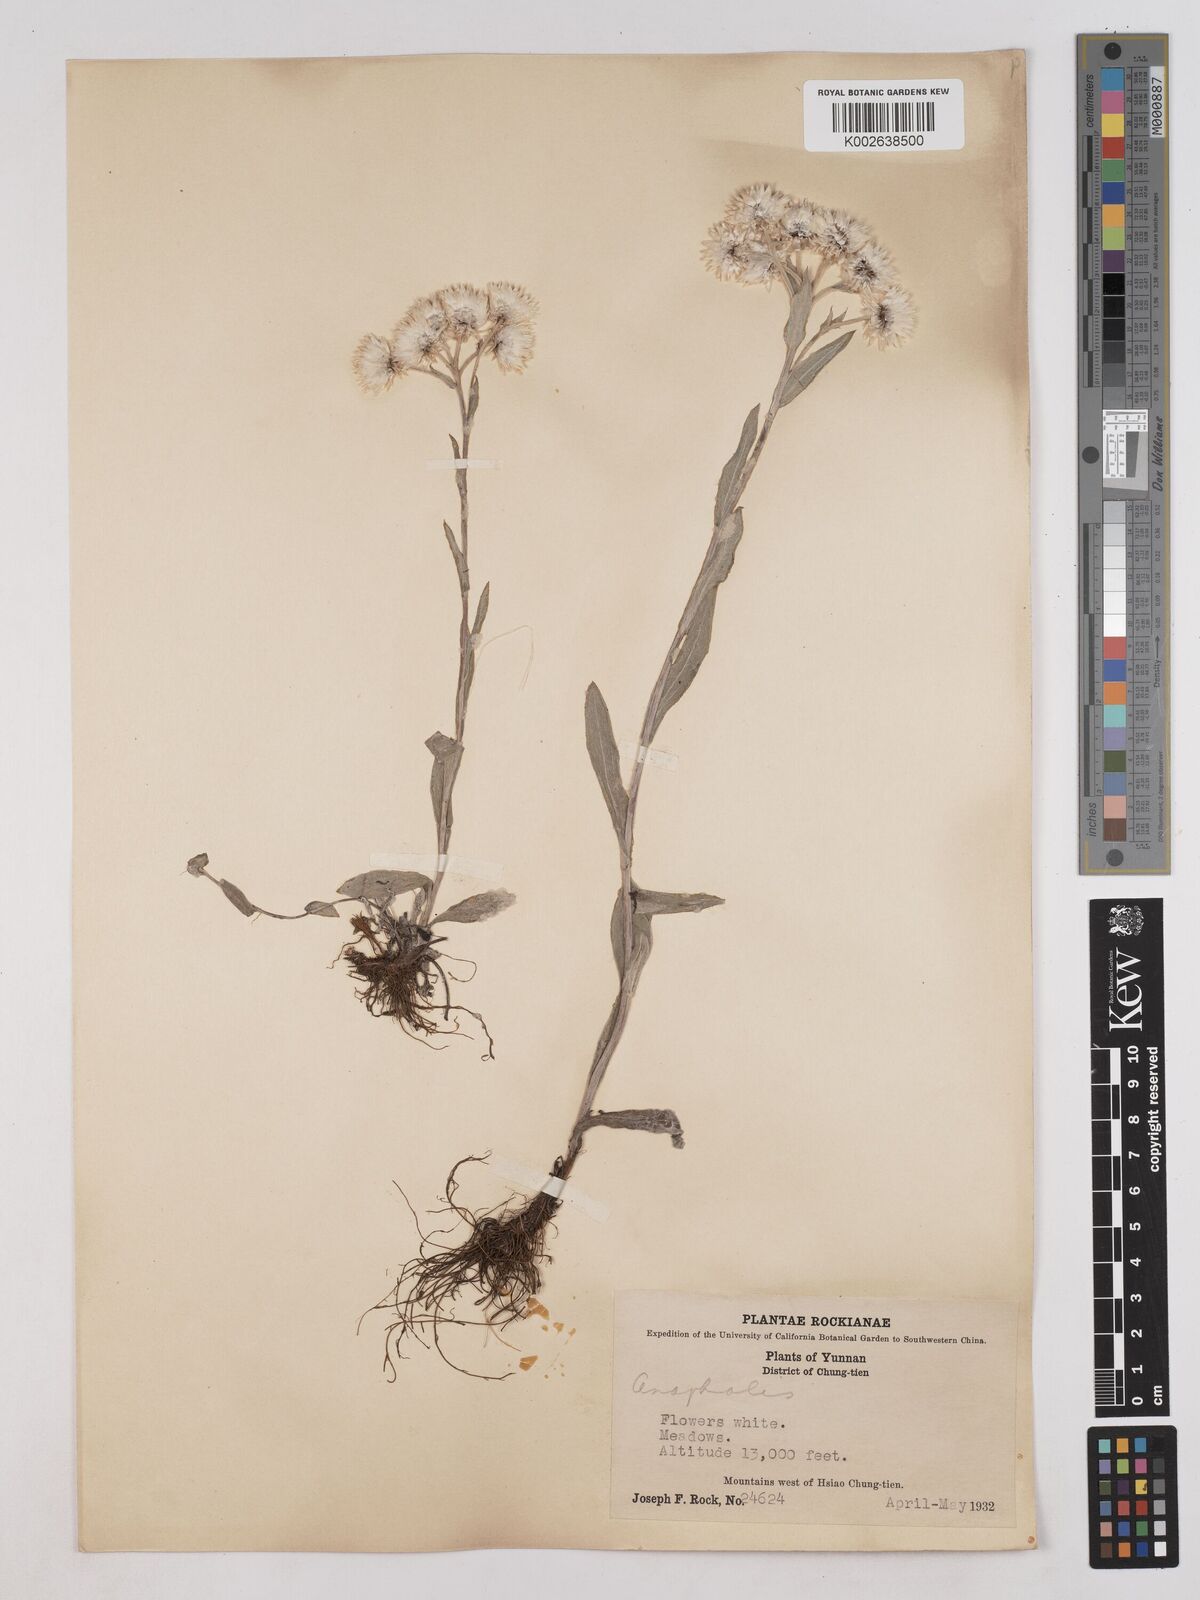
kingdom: Plantae
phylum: Tracheophyta
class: Magnoliopsida
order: Asterales
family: Asteraceae
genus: Anaphalis
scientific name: Anaphalis nepalensis
